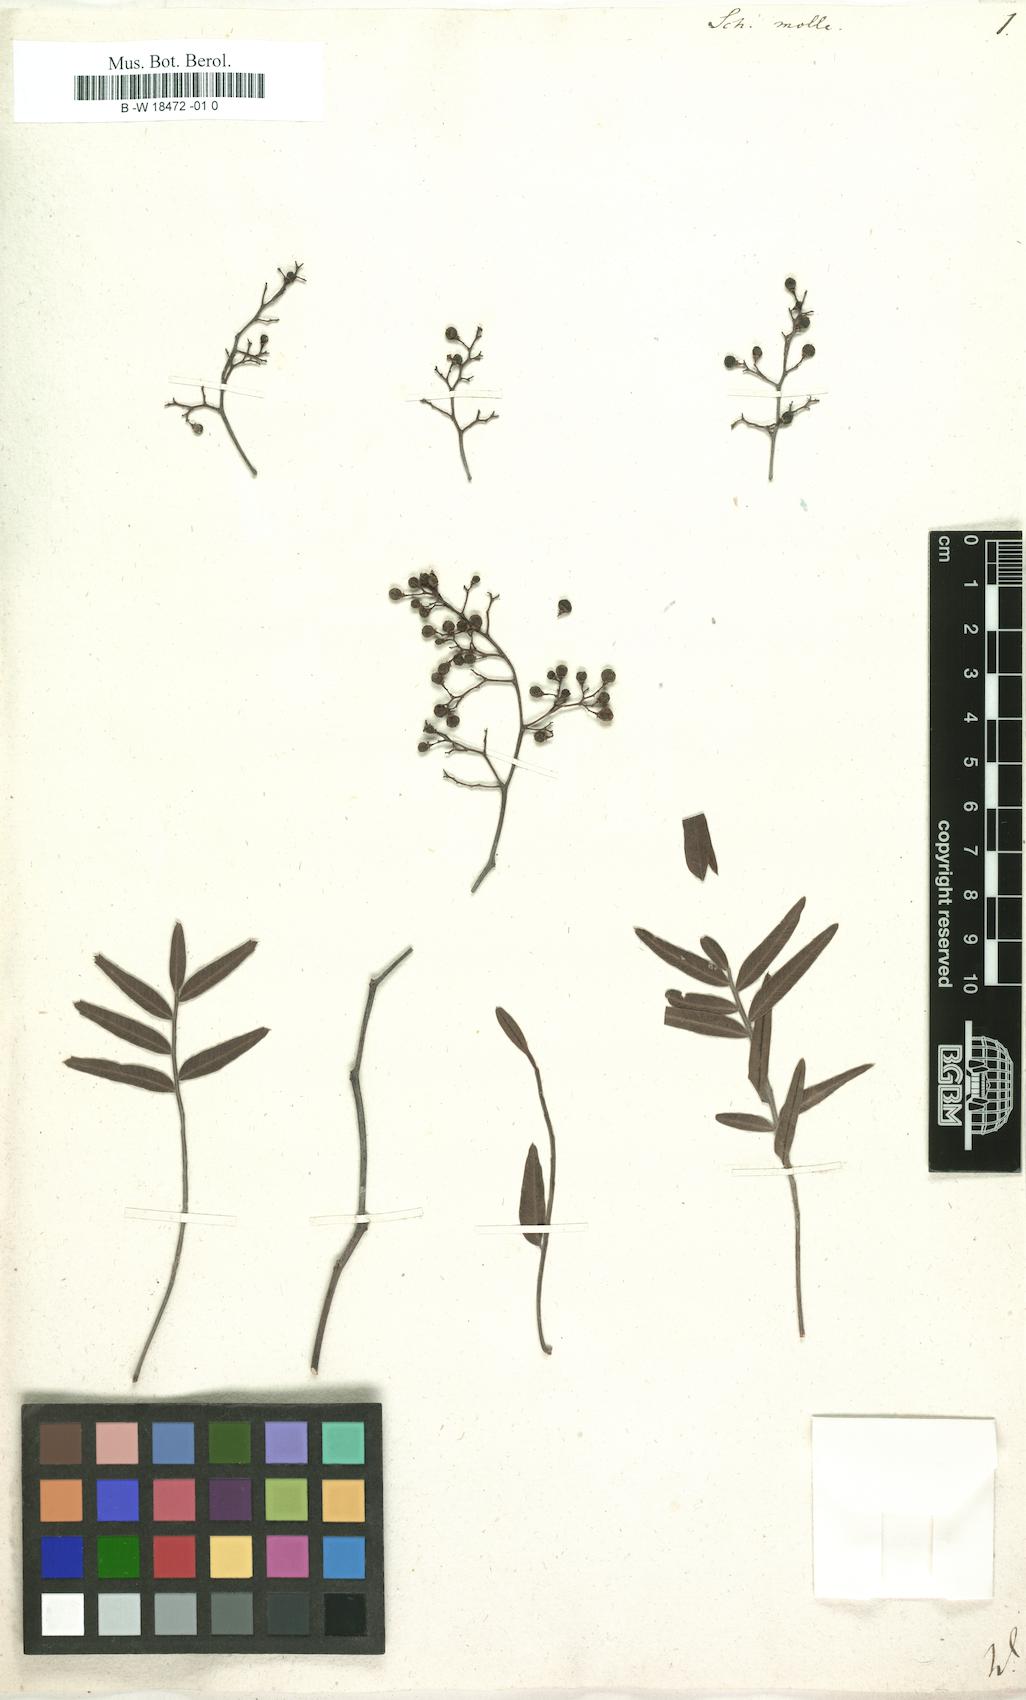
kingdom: Plantae
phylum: Tracheophyta
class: Magnoliopsida
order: Sapindales
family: Anacardiaceae
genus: Schinus
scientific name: Schinus molle
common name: Peruvian peppertree
